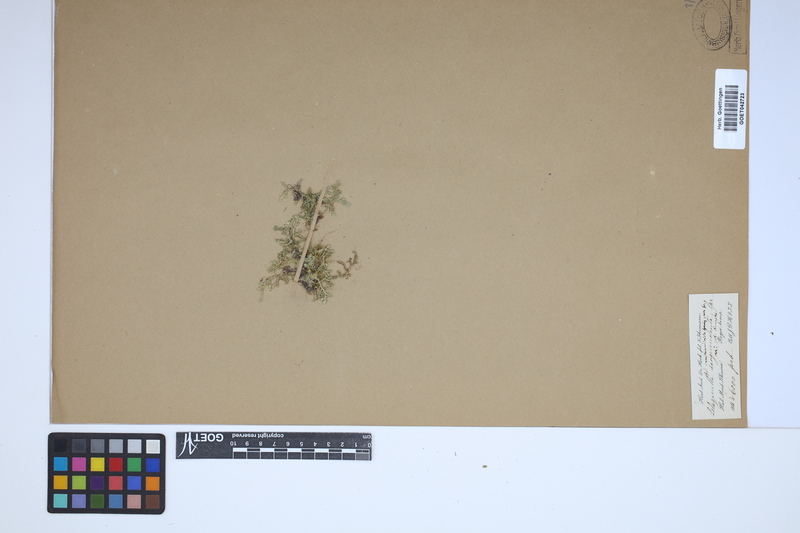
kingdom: Plantae
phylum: Tracheophyta
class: Lycopodiopsida
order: Selaginellales
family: Selaginellaceae
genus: Selaginella
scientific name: Selaginella ornithopodioides
